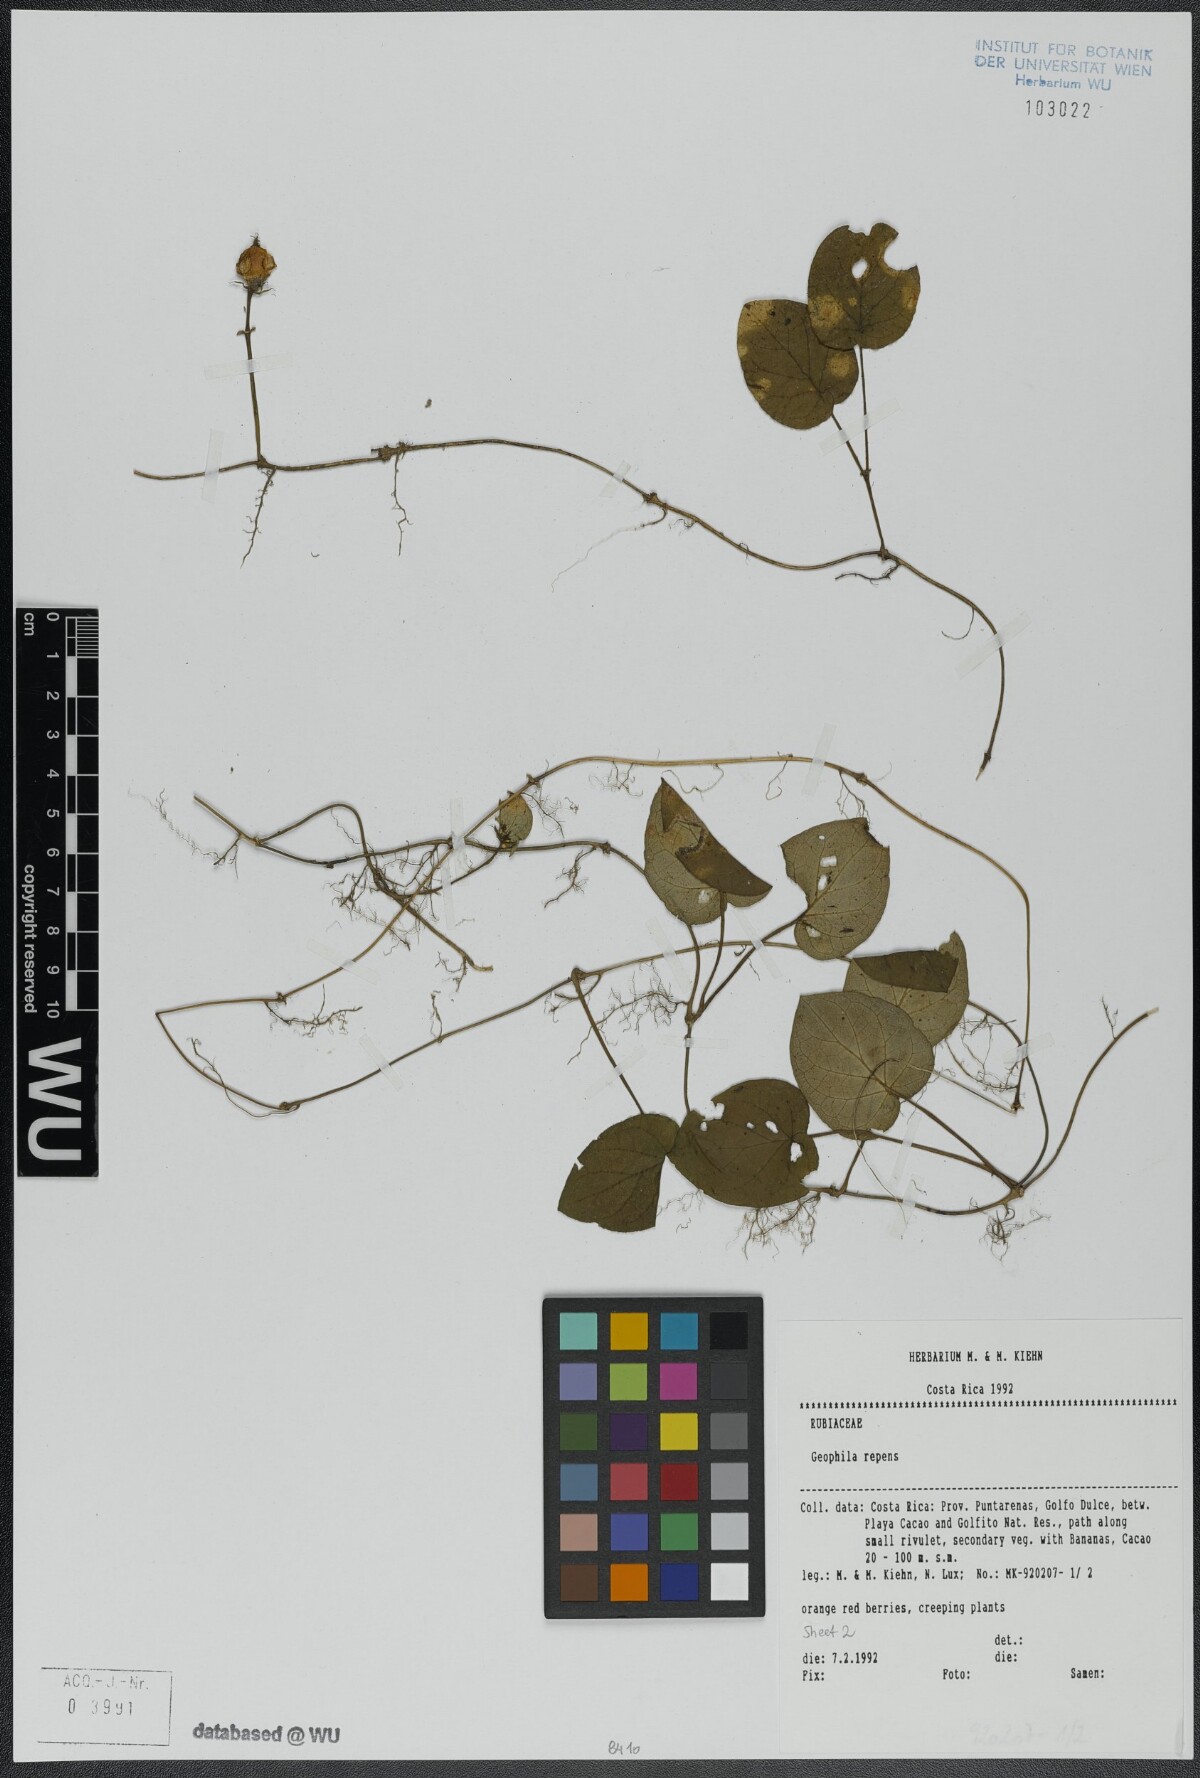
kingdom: Plantae
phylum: Tracheophyta
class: Magnoliopsida
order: Gentianales
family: Rubiaceae
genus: Geophila
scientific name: Geophila repens
